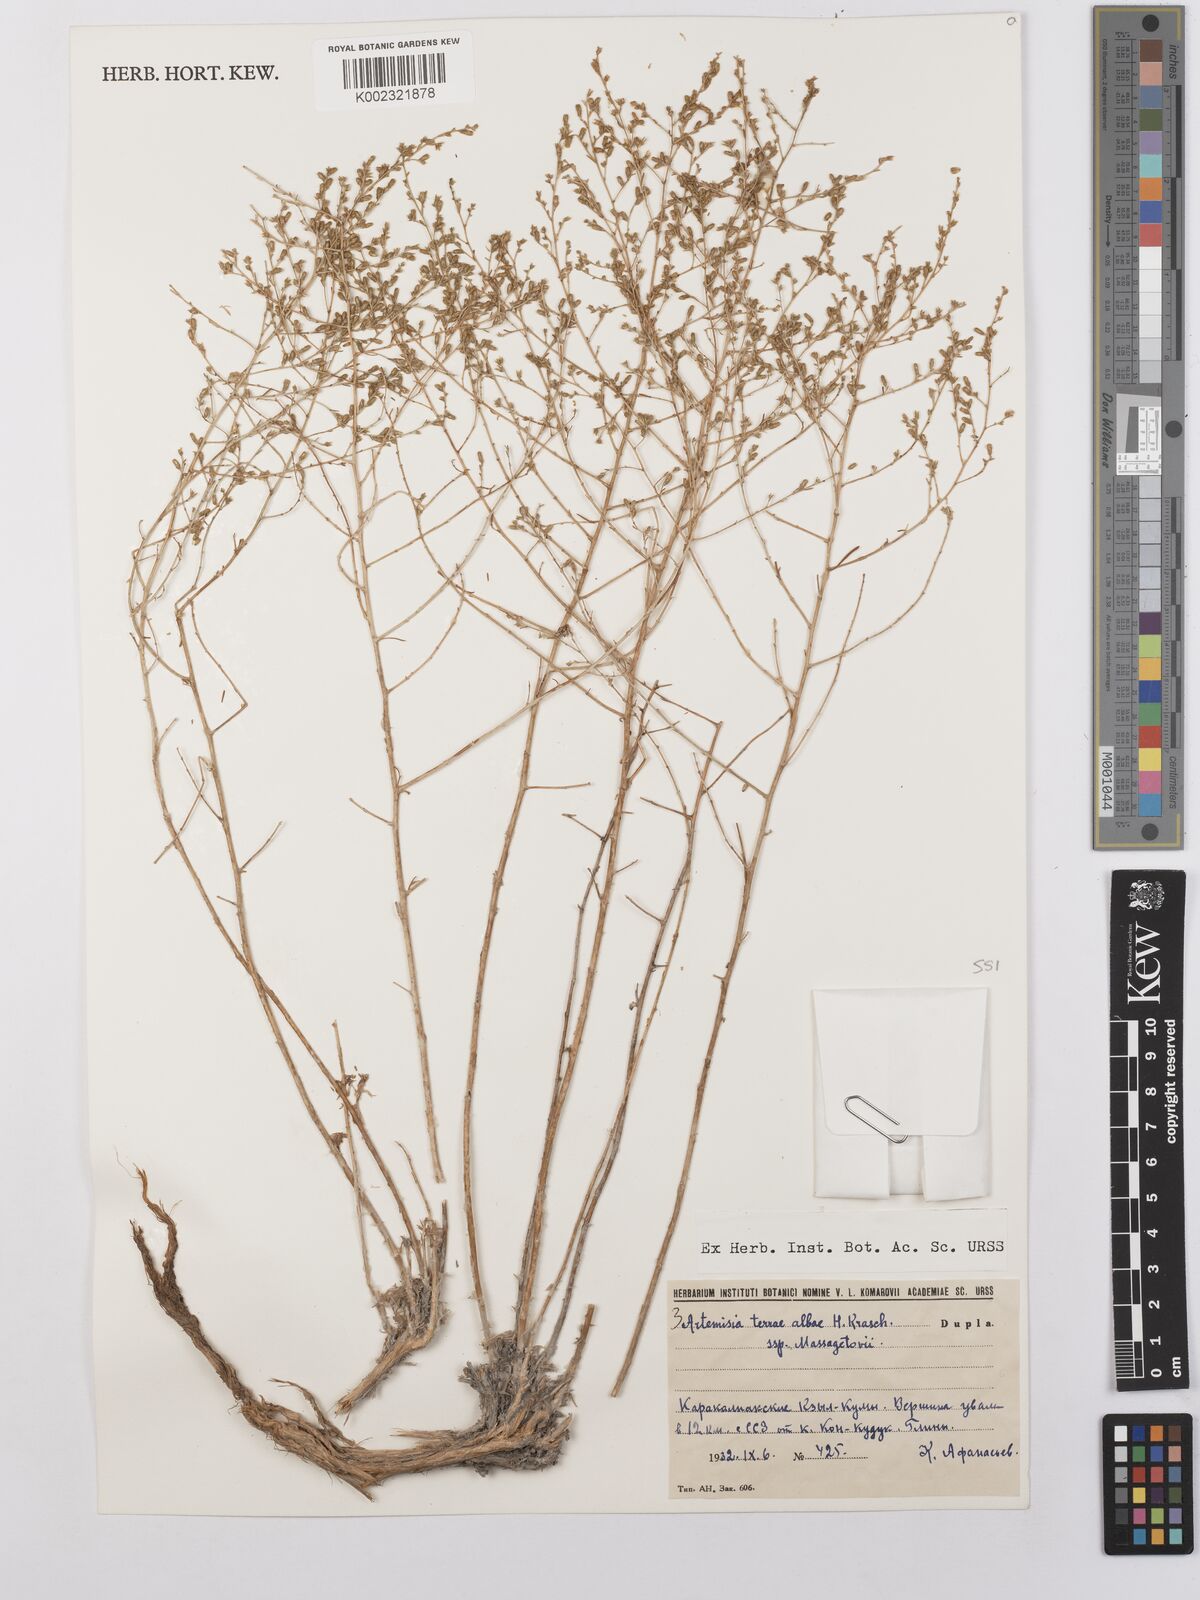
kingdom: Plantae
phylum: Tracheophyta
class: Magnoliopsida
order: Asterales
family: Asteraceae
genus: Artemisia
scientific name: Artemisia terrae-albae
